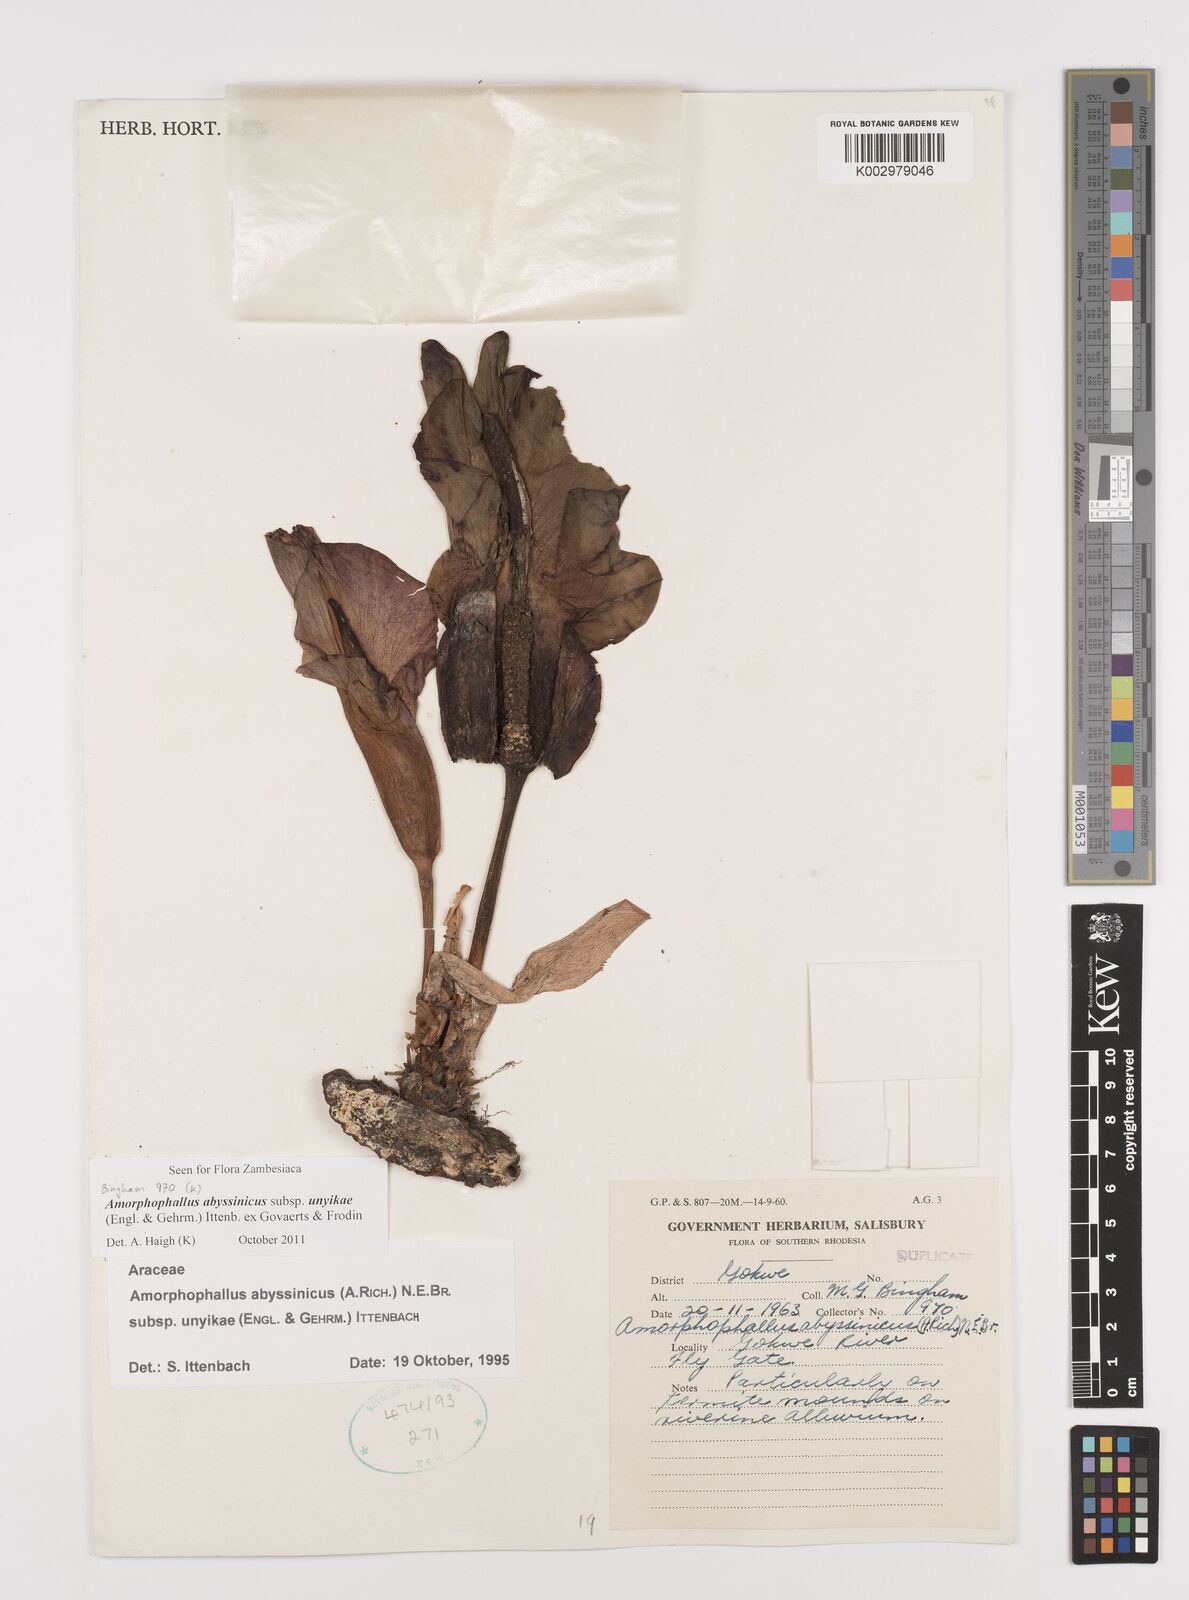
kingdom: Plantae
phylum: Tracheophyta
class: Liliopsida
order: Alismatales
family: Araceae
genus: Amorphophallus
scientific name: Amorphophallus abyssinicus
